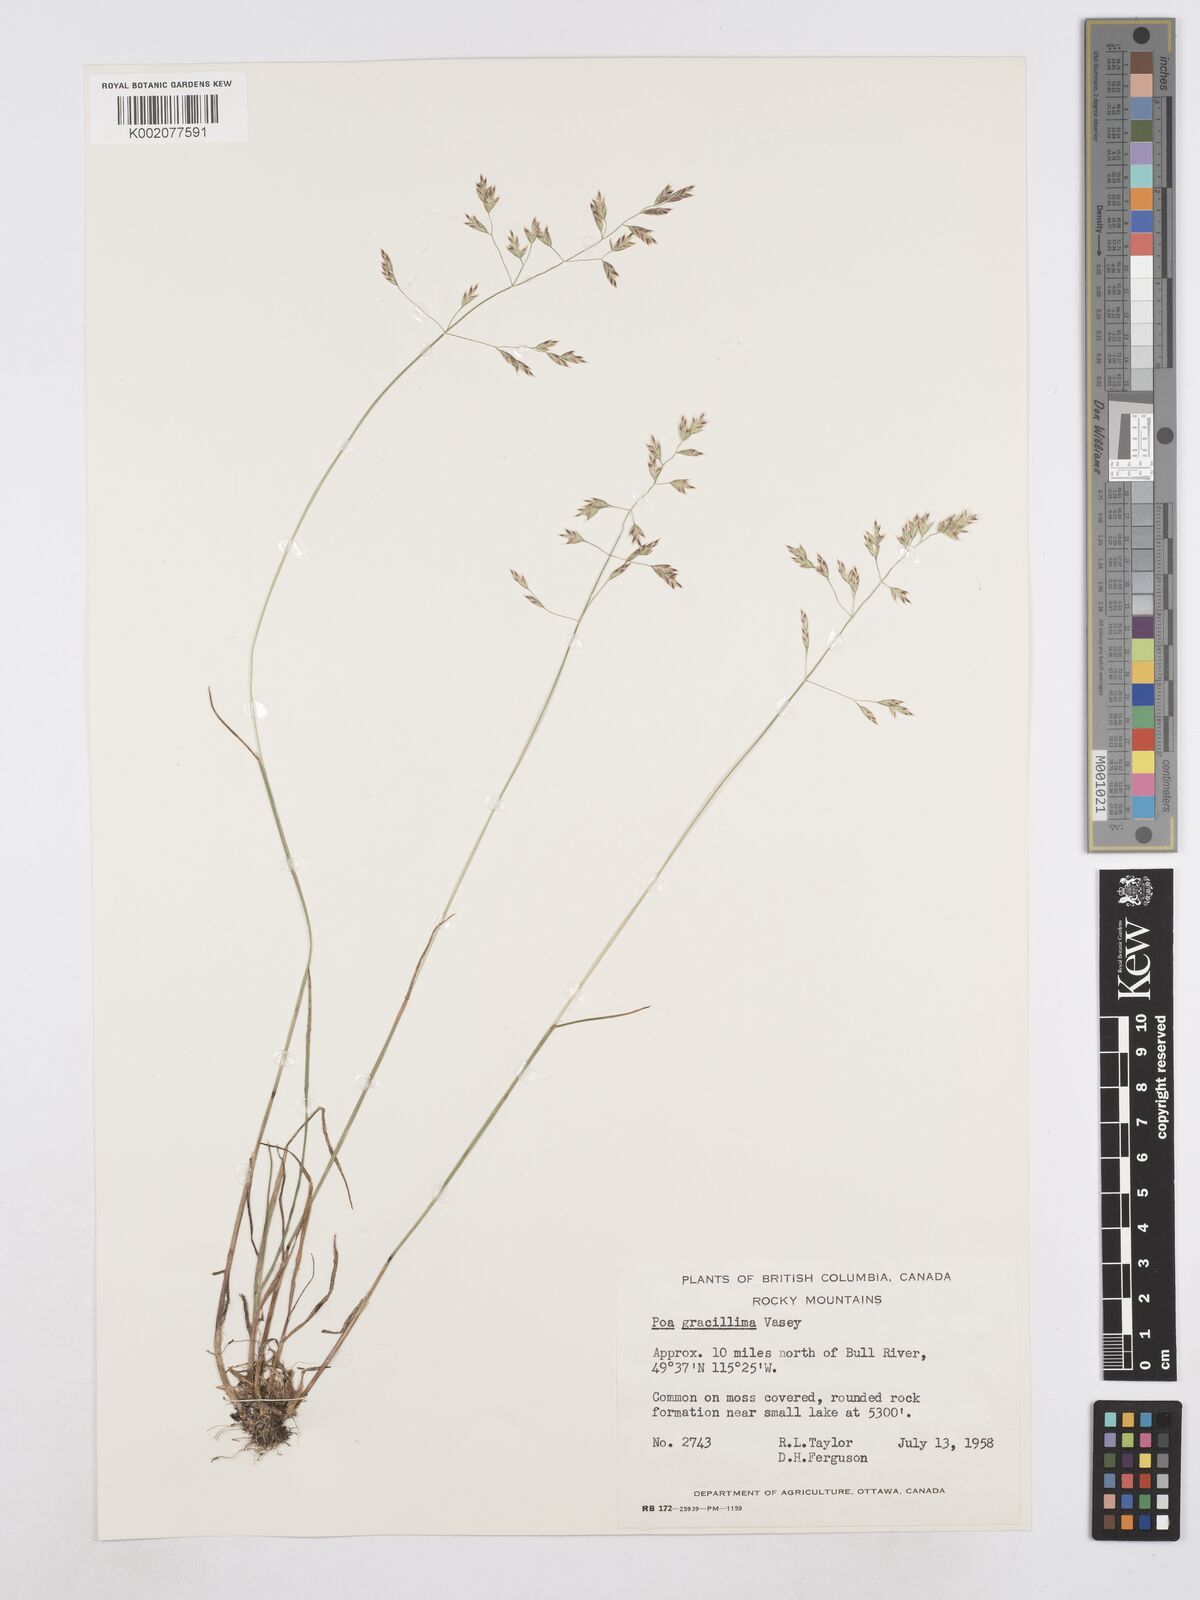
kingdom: Plantae
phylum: Tracheophyta
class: Liliopsida
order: Poales
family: Poaceae
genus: Poa
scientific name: Poa secunda
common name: Sandberg bluegrass
